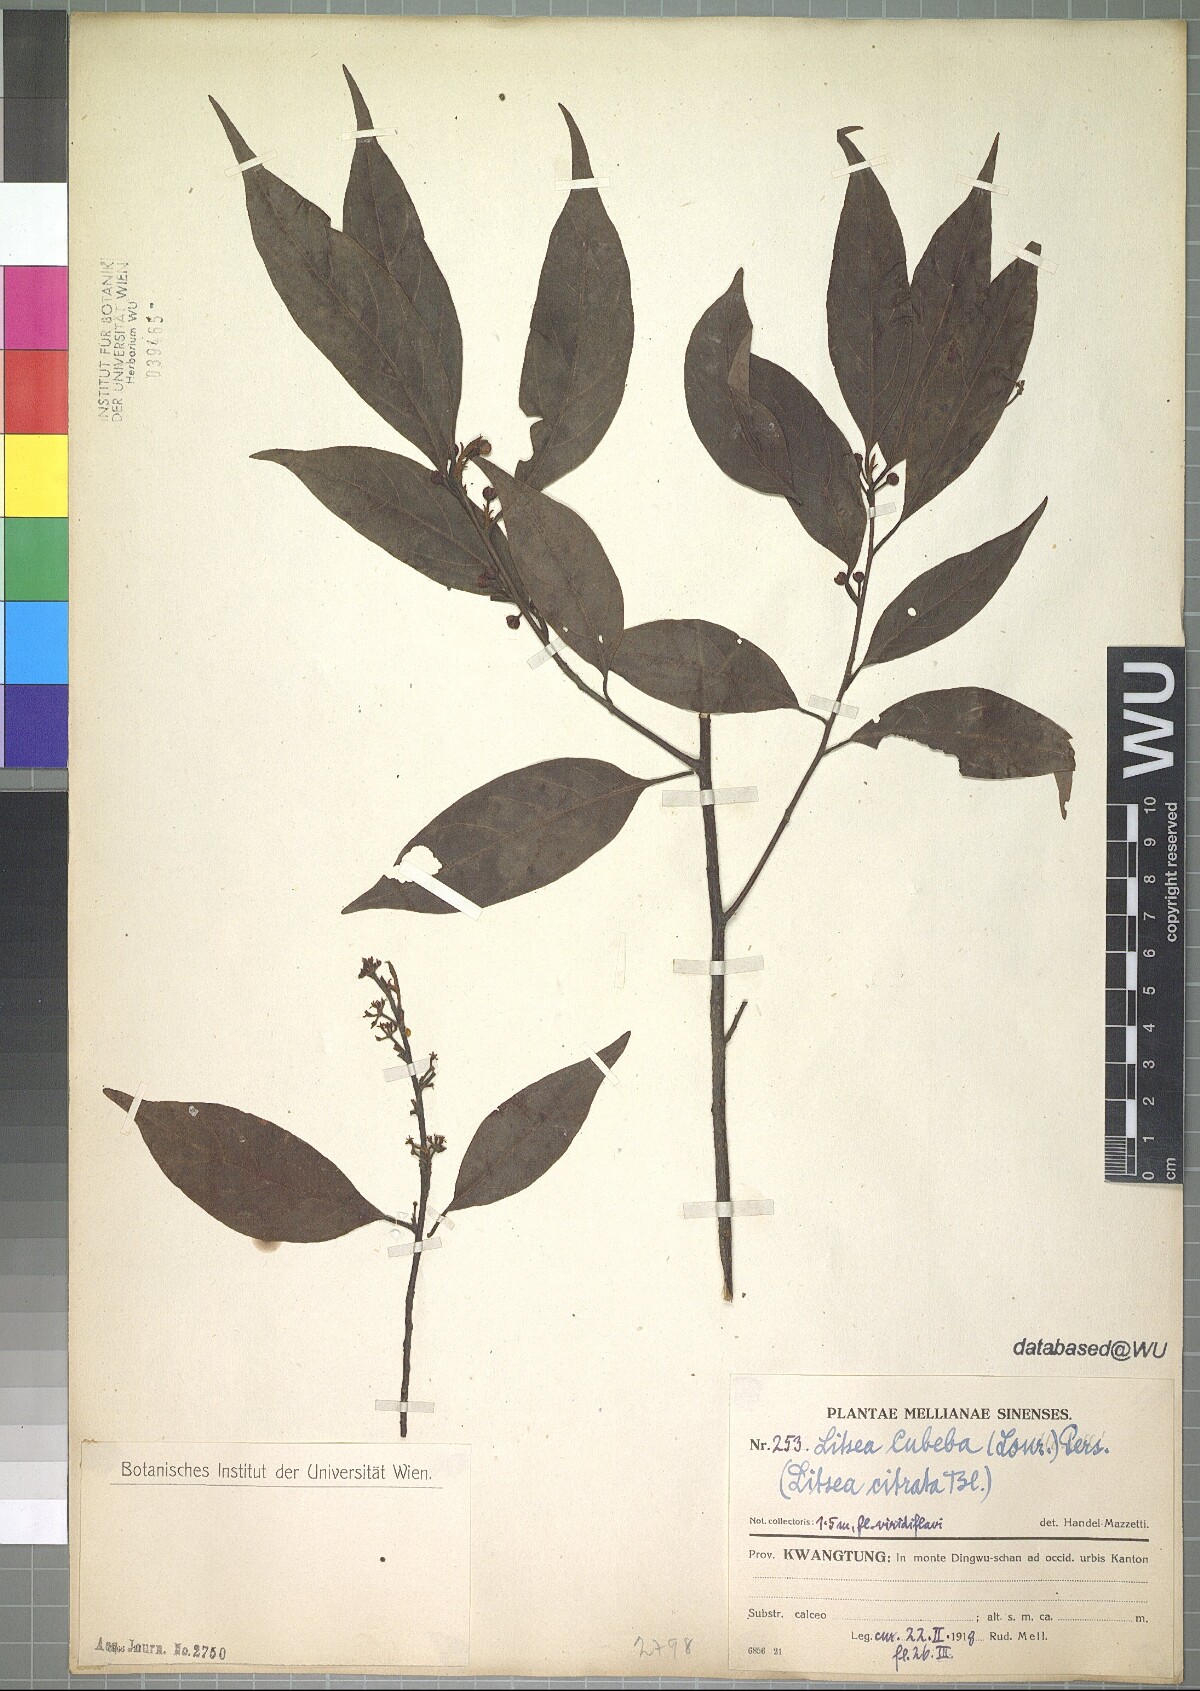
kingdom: Plantae
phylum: Tracheophyta
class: Magnoliopsida
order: Laurales
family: Lauraceae
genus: Litsea
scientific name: Litsea cubeba
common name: Mountain-pepper
